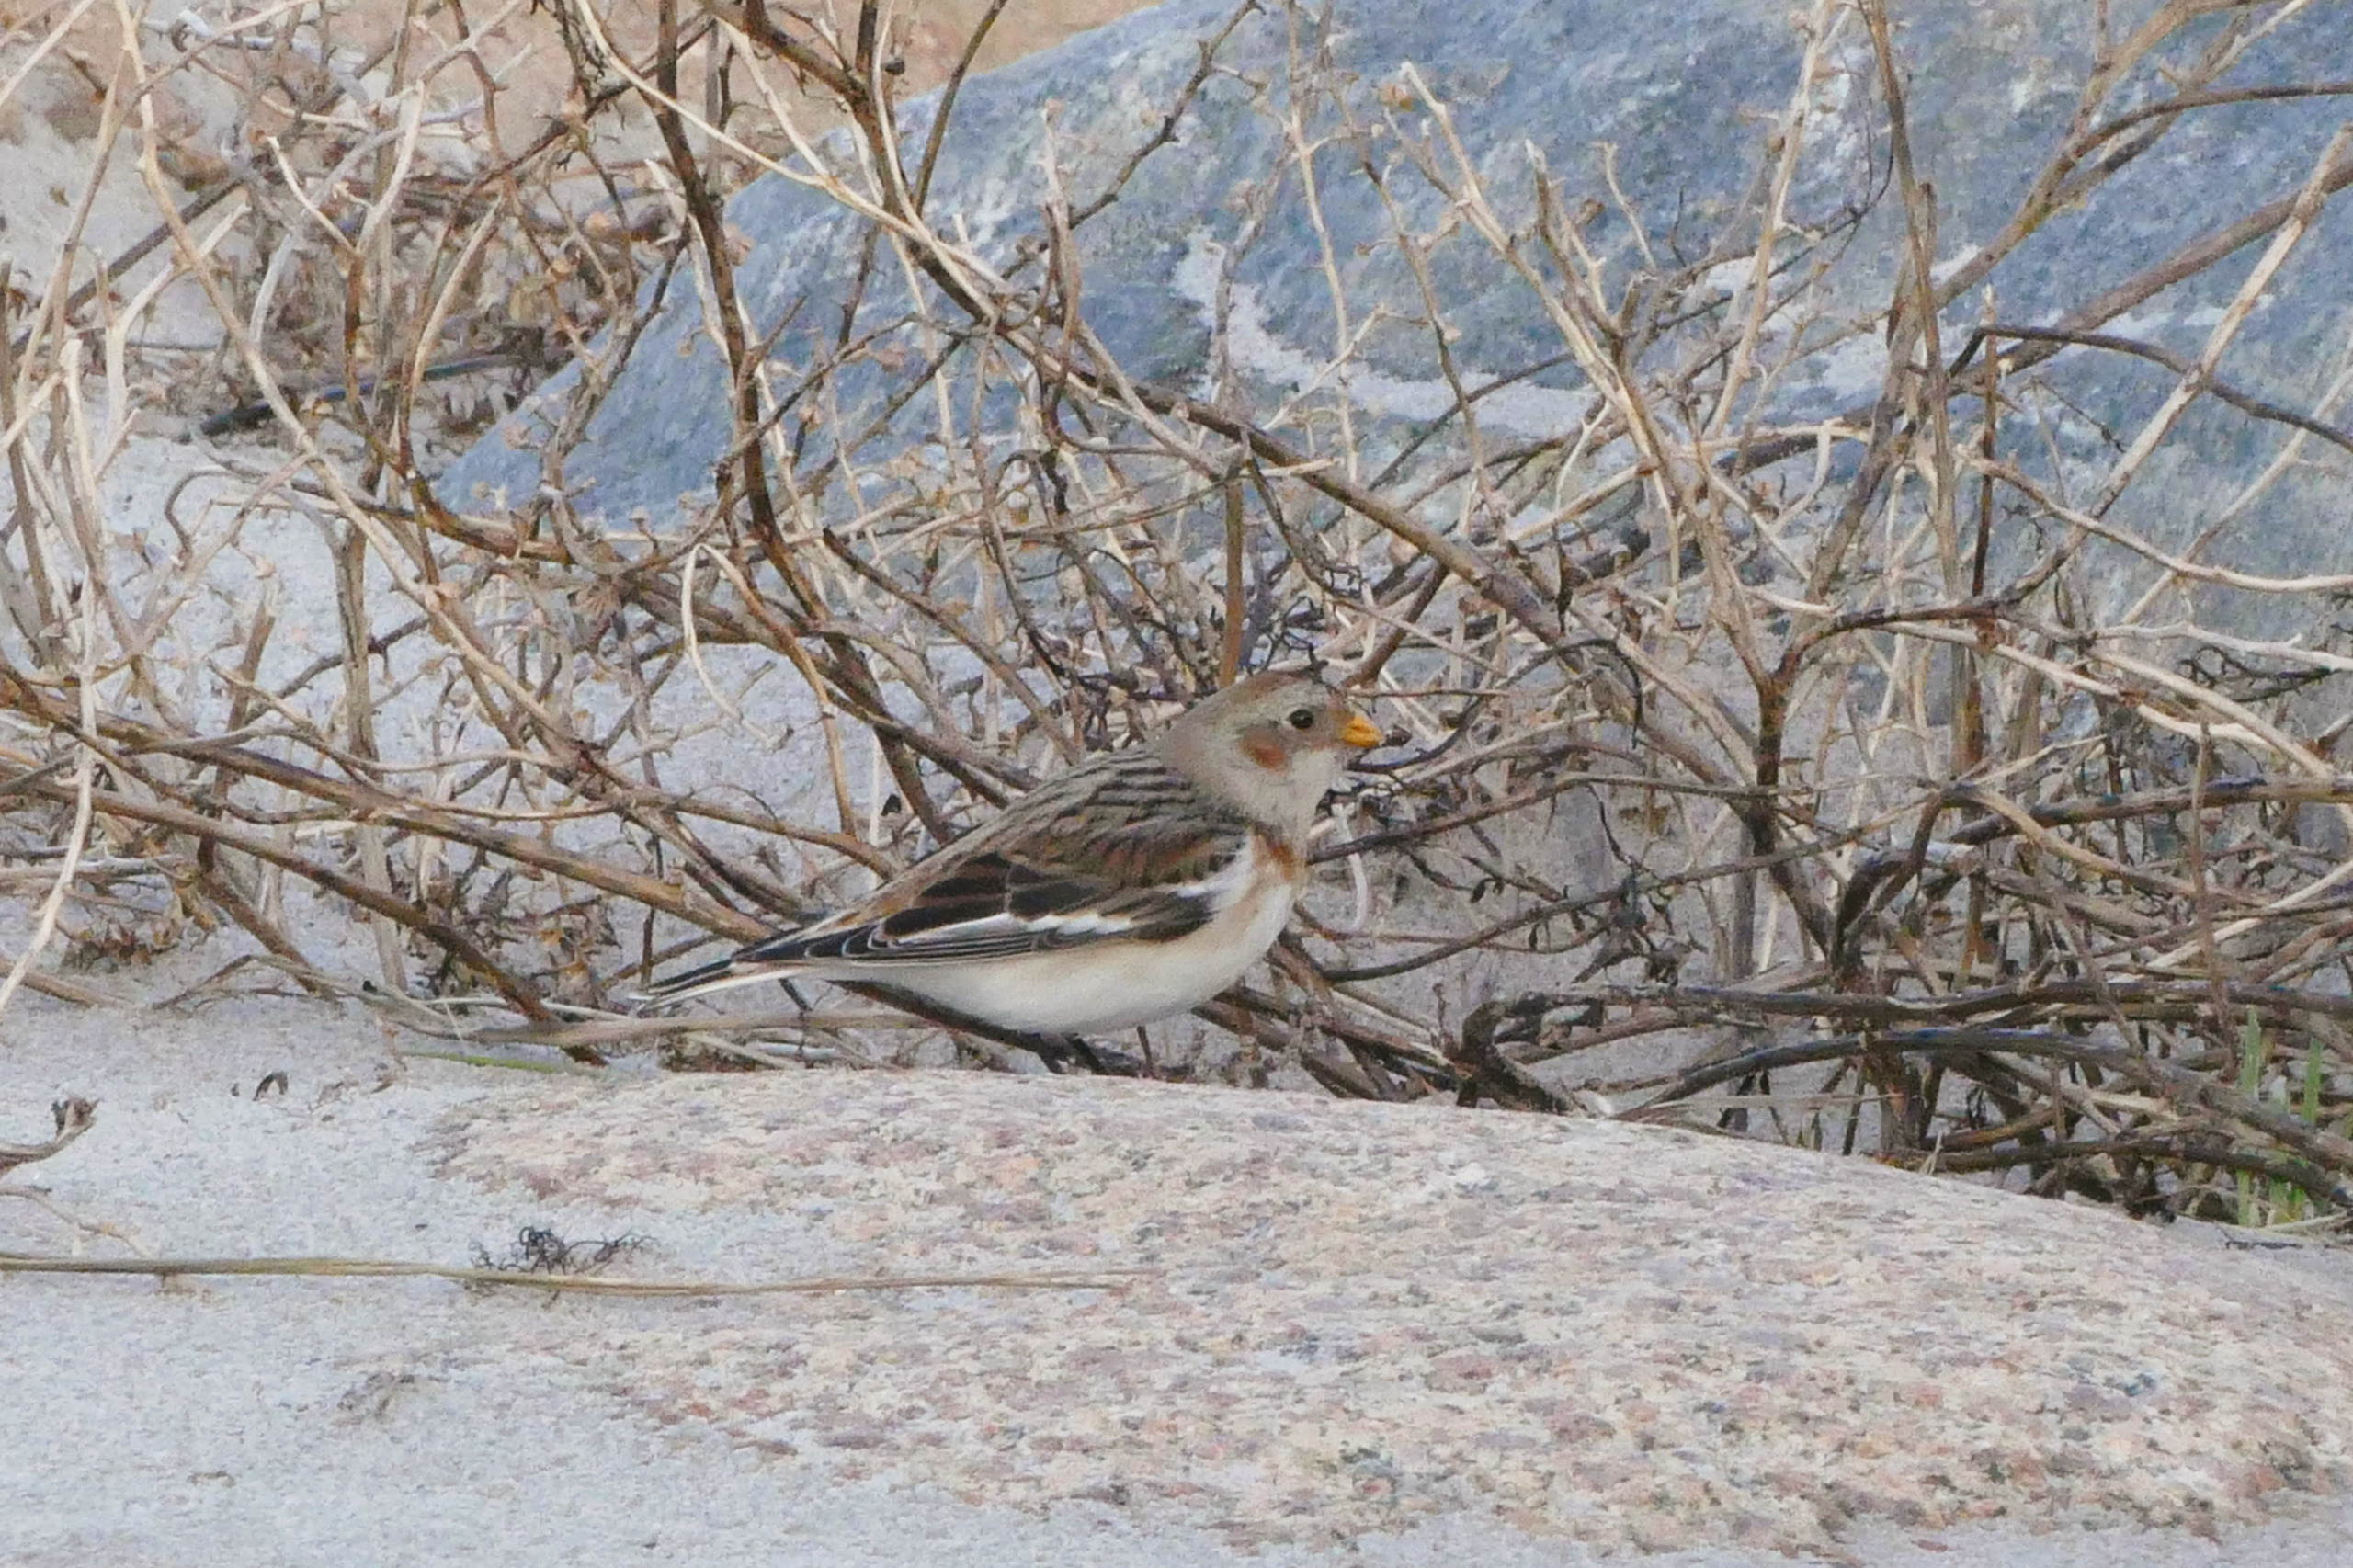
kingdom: Animalia
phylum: Chordata
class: Aves
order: Passeriformes
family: Calcariidae
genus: Plectrophenax
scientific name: Plectrophenax nivalis
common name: Snespurv
